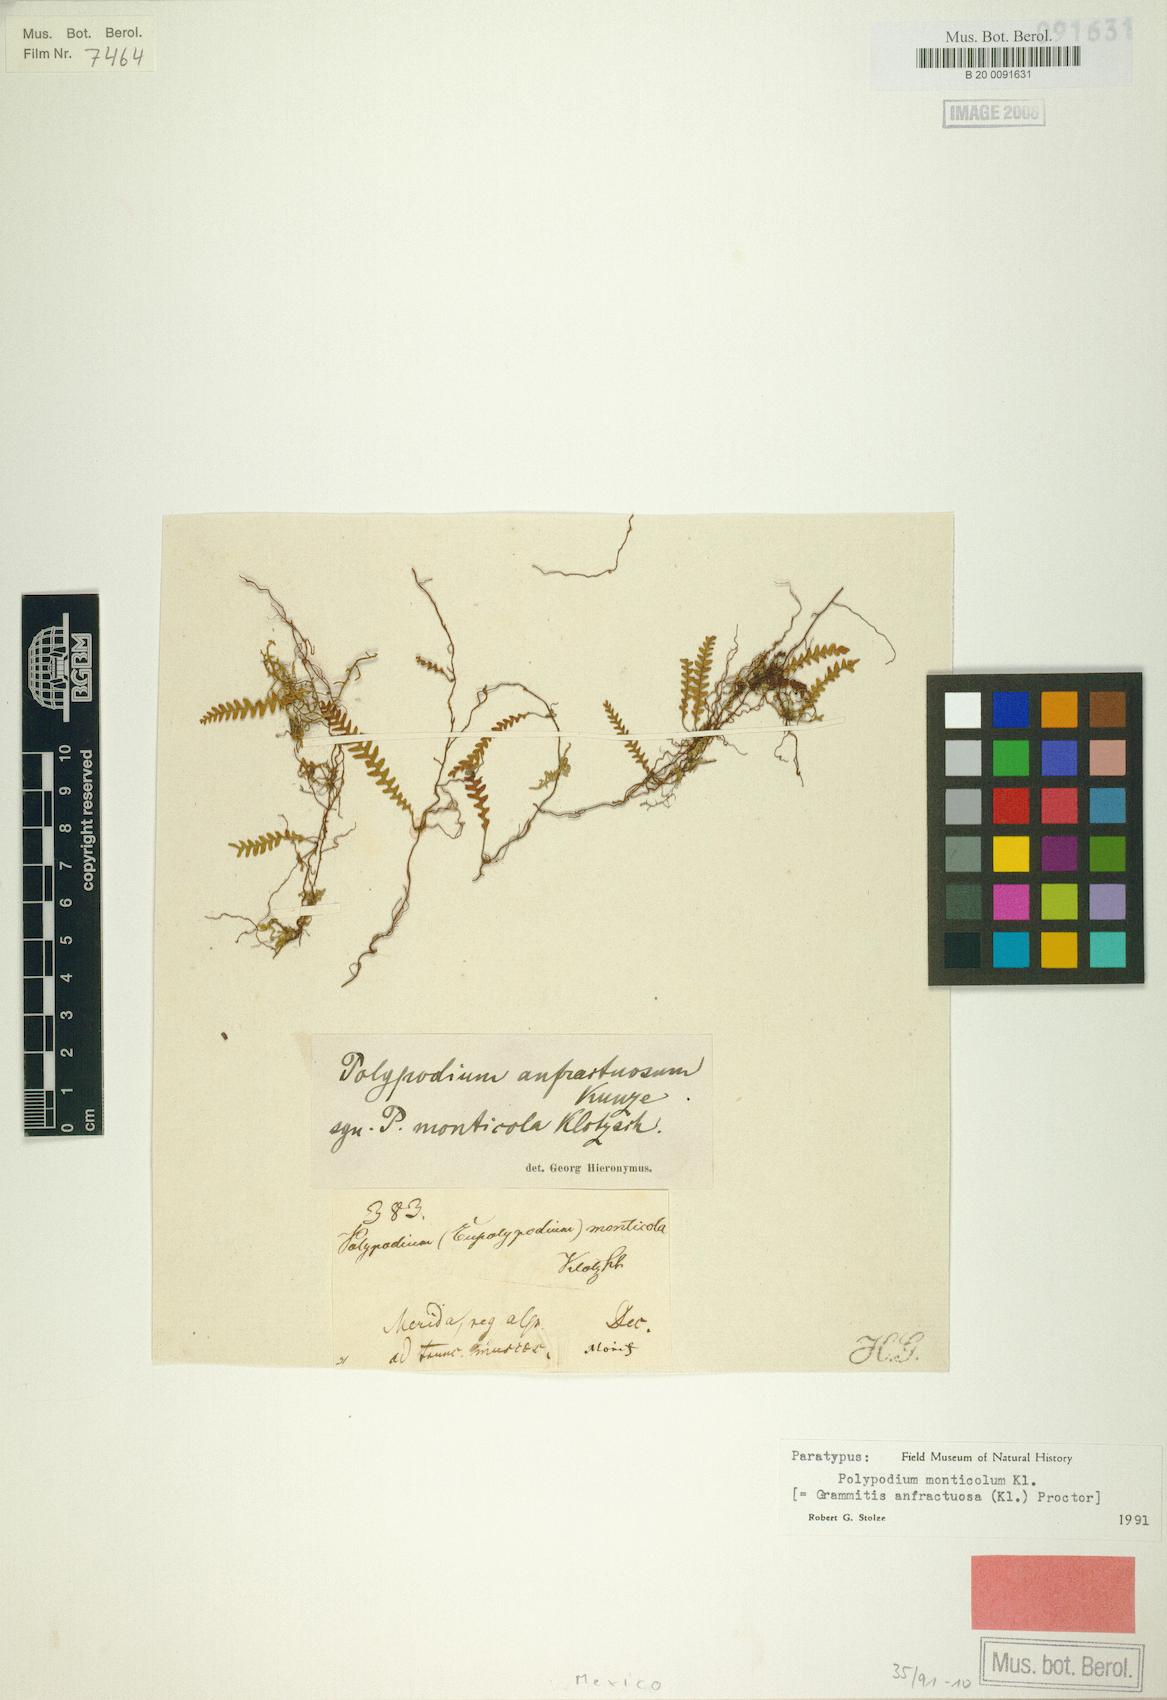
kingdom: Plantae
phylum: Tracheophyta
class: Polypodiopsida
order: Polypodiales
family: Polypodiaceae
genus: Ascogrammitis
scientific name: Ascogrammitis anfractuosa
